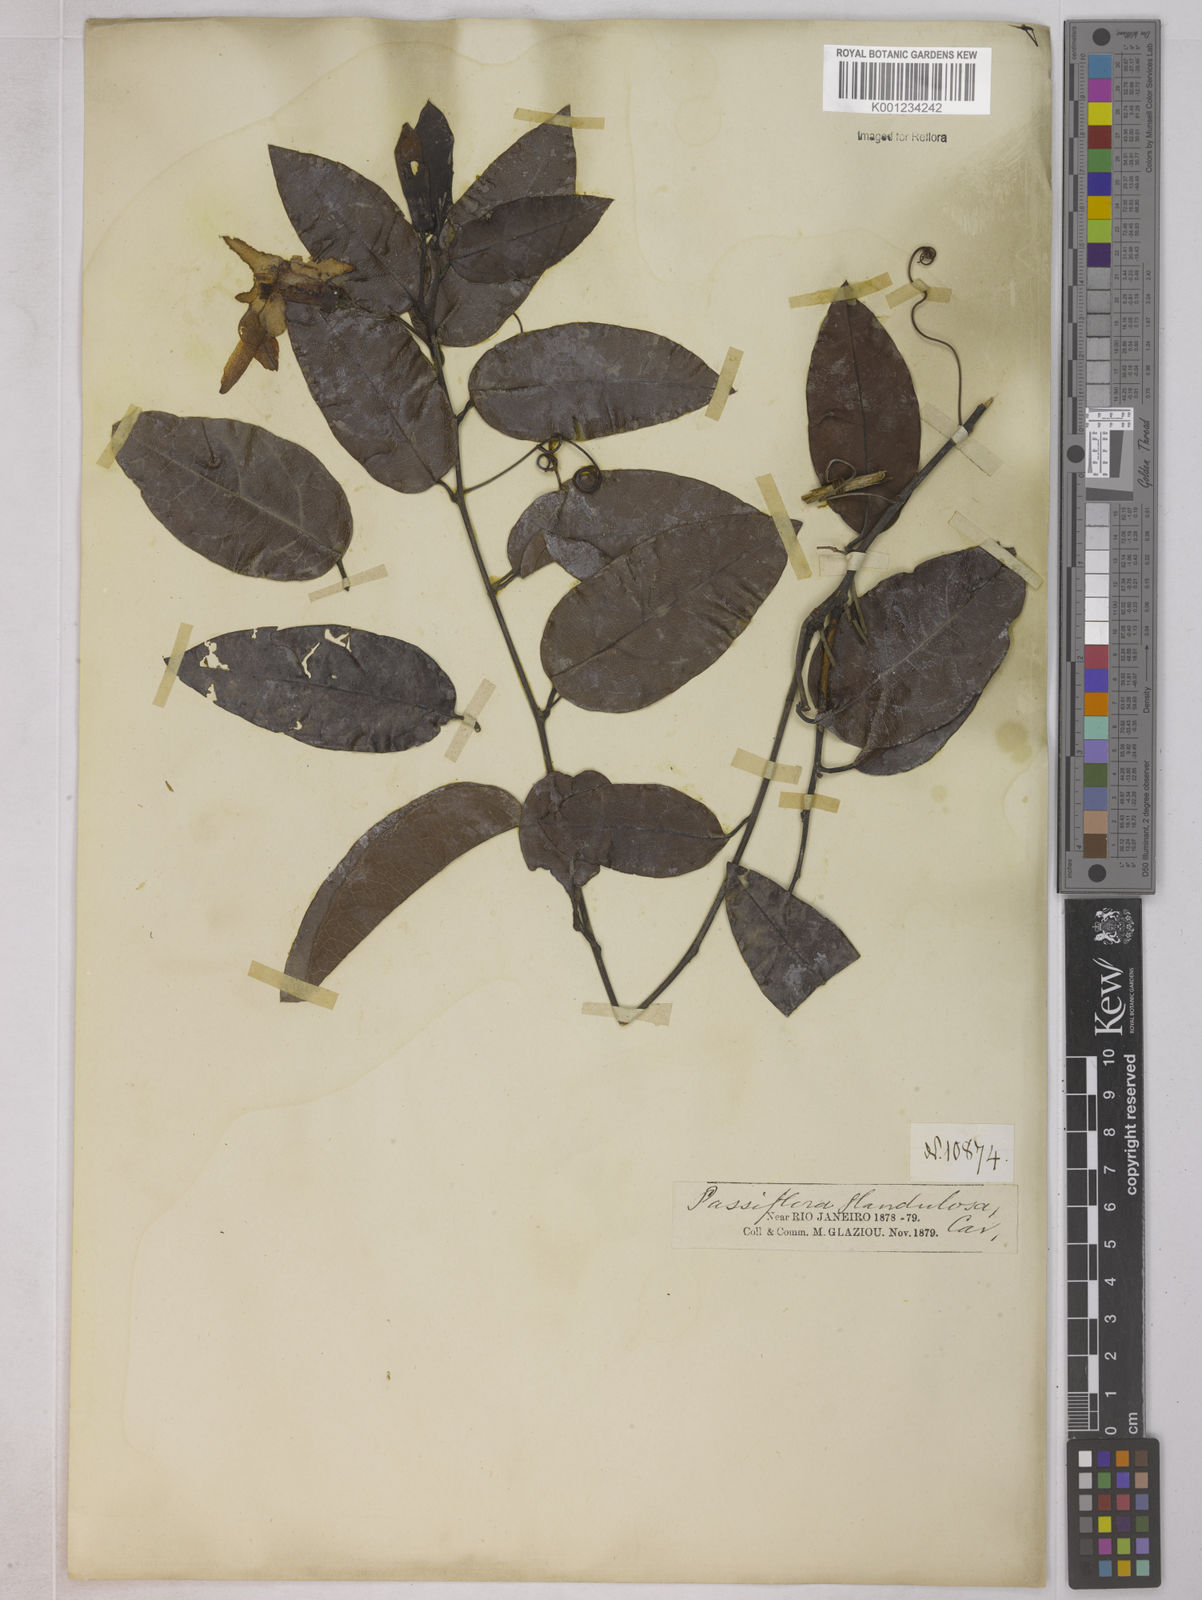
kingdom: Plantae
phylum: Tracheophyta
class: Magnoliopsida
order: Malpighiales
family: Passifloraceae
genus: Passiflora
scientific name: Passiflora glandulosa
